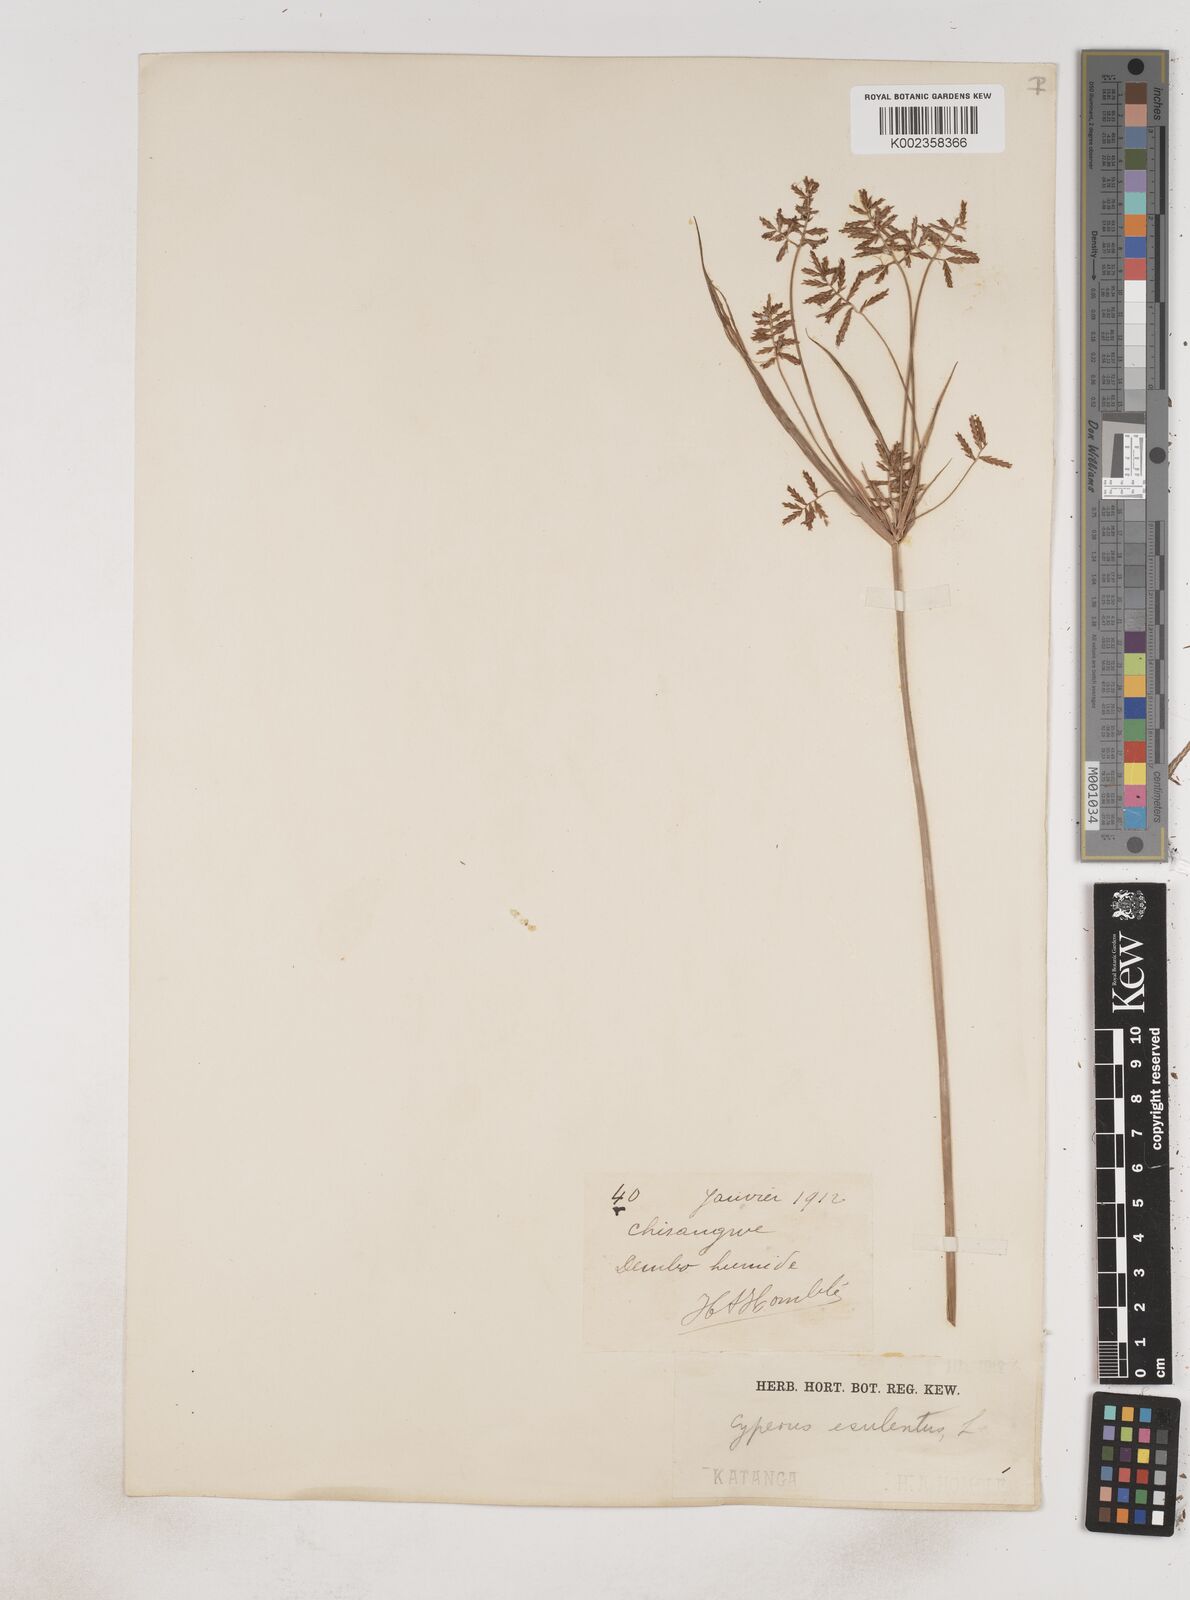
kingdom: Plantae
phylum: Tracheophyta
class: Liliopsida
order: Poales
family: Cyperaceae
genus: Cyperus
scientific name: Cyperus esculentus
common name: Yellow nutsedge
